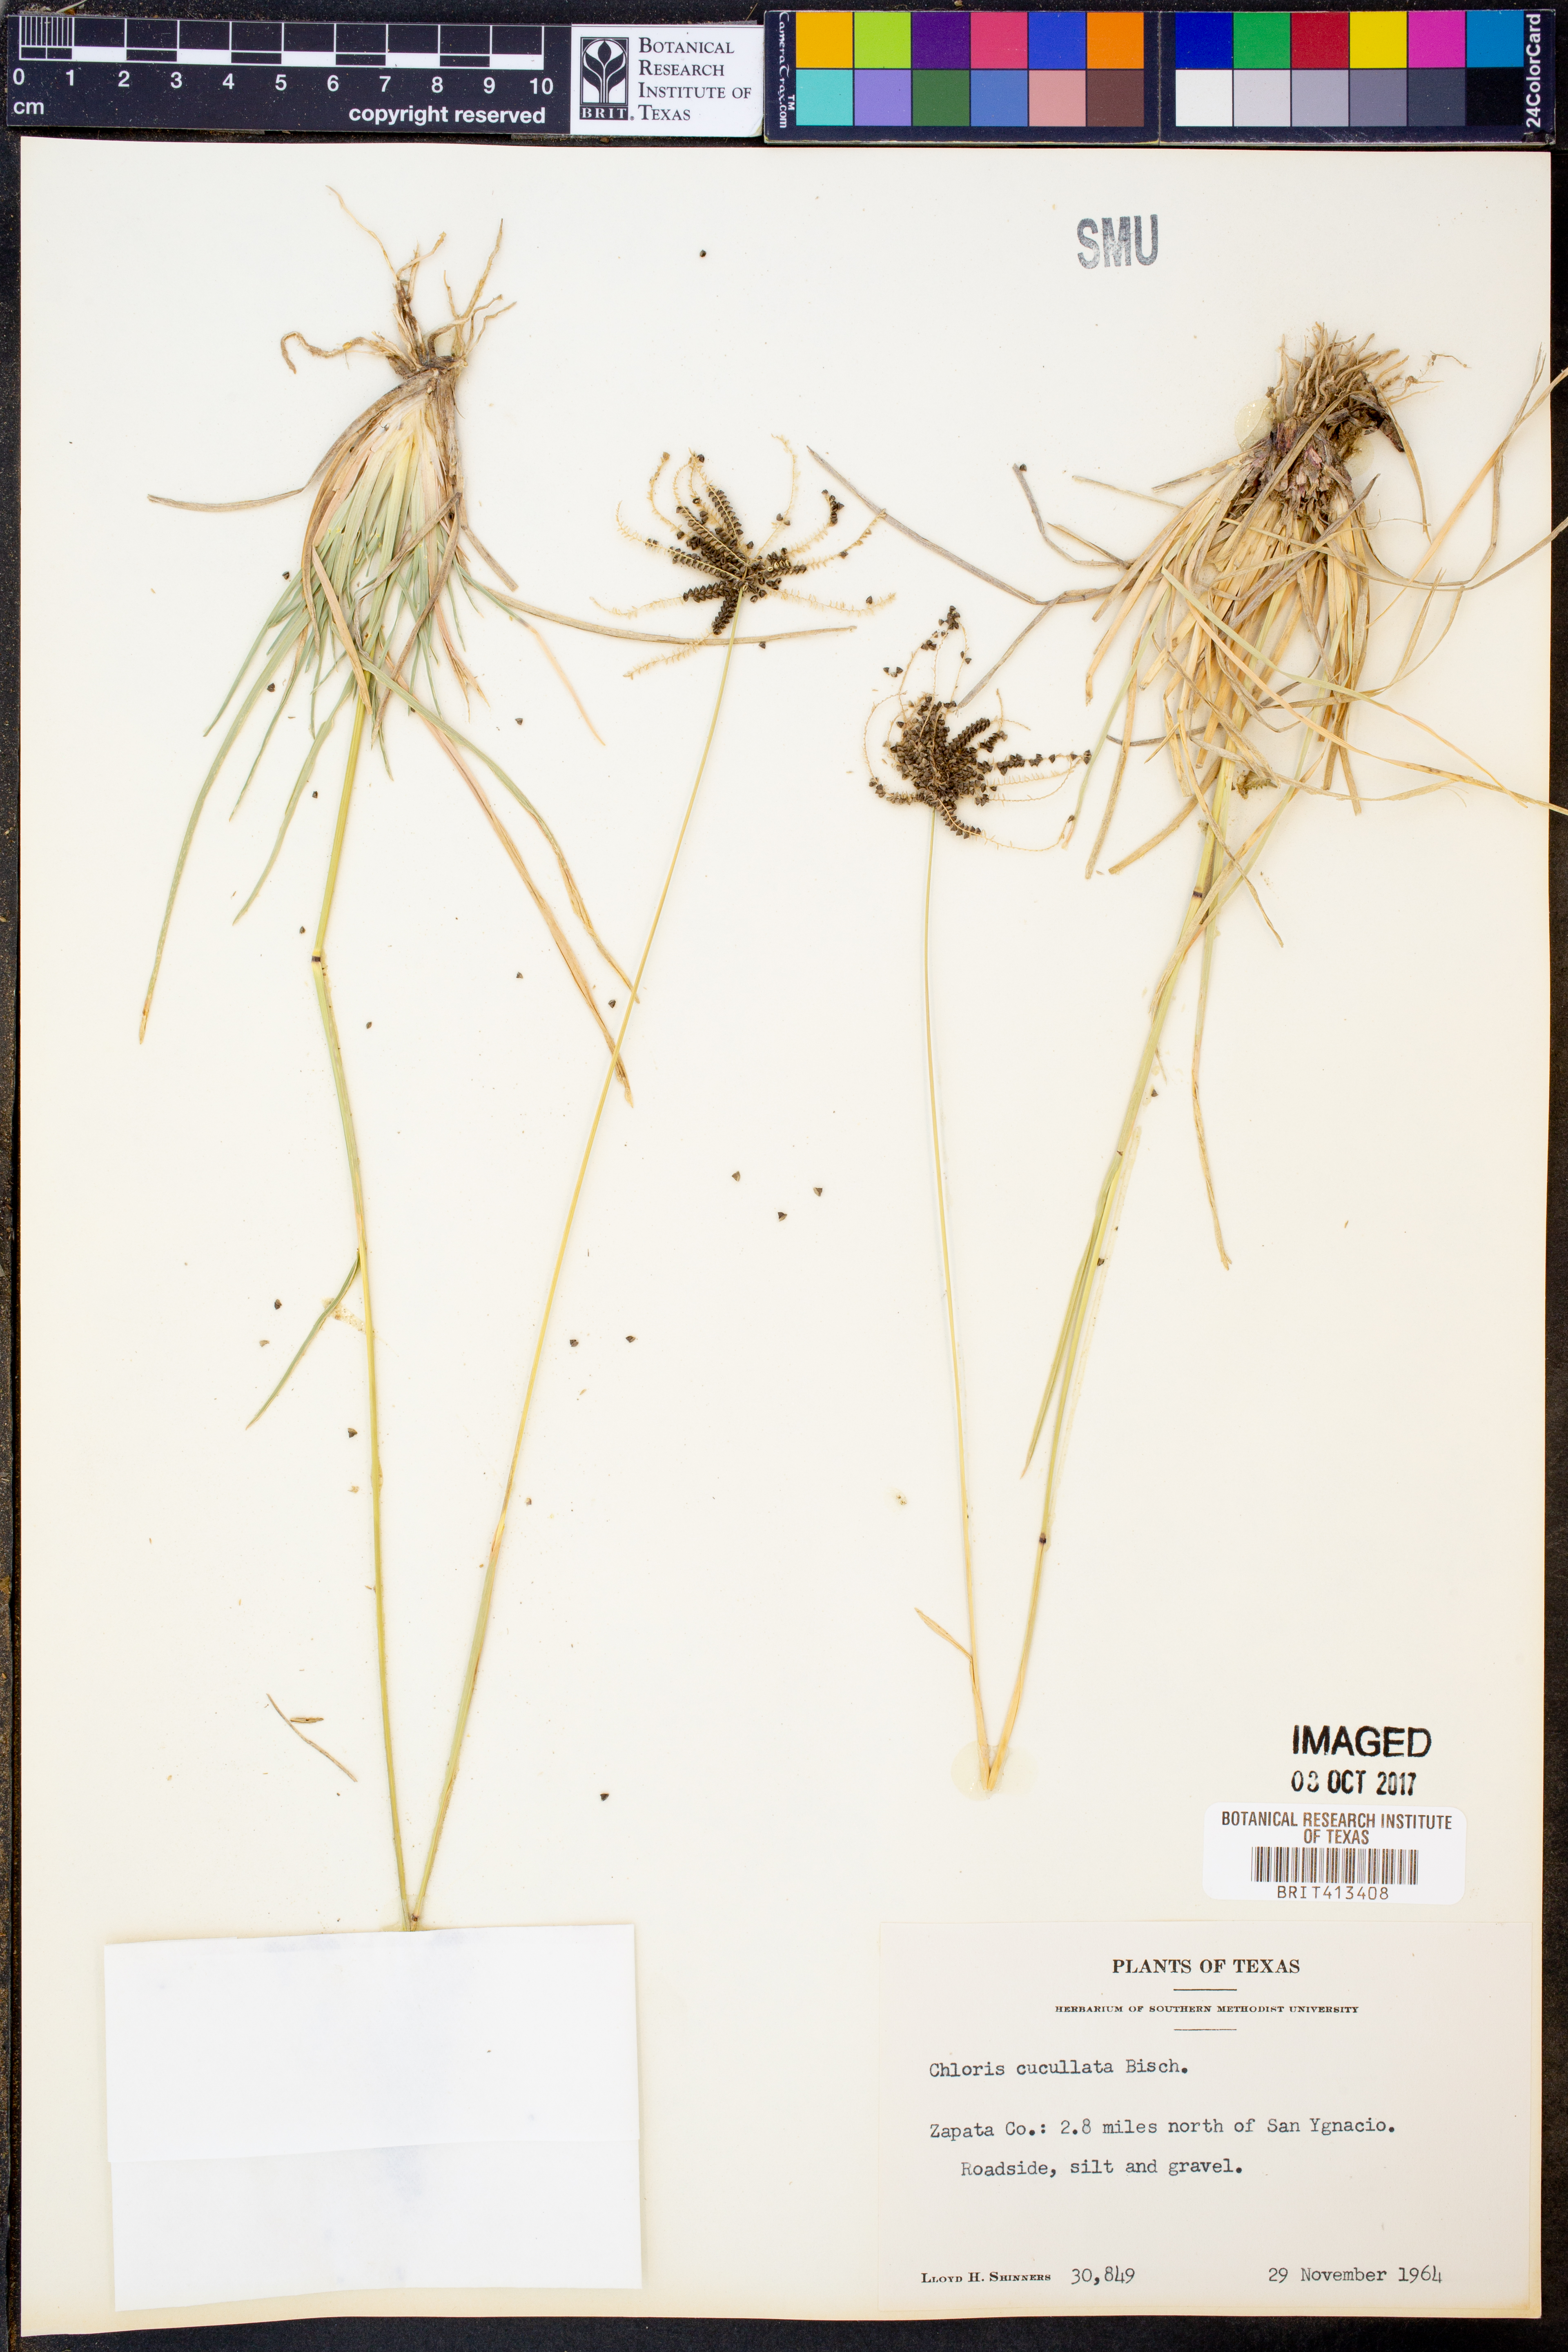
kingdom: Plantae
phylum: Tracheophyta
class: Liliopsida
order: Poales
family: Poaceae
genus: Chloris
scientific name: Chloris cucullata
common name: Hooded windmill grass
